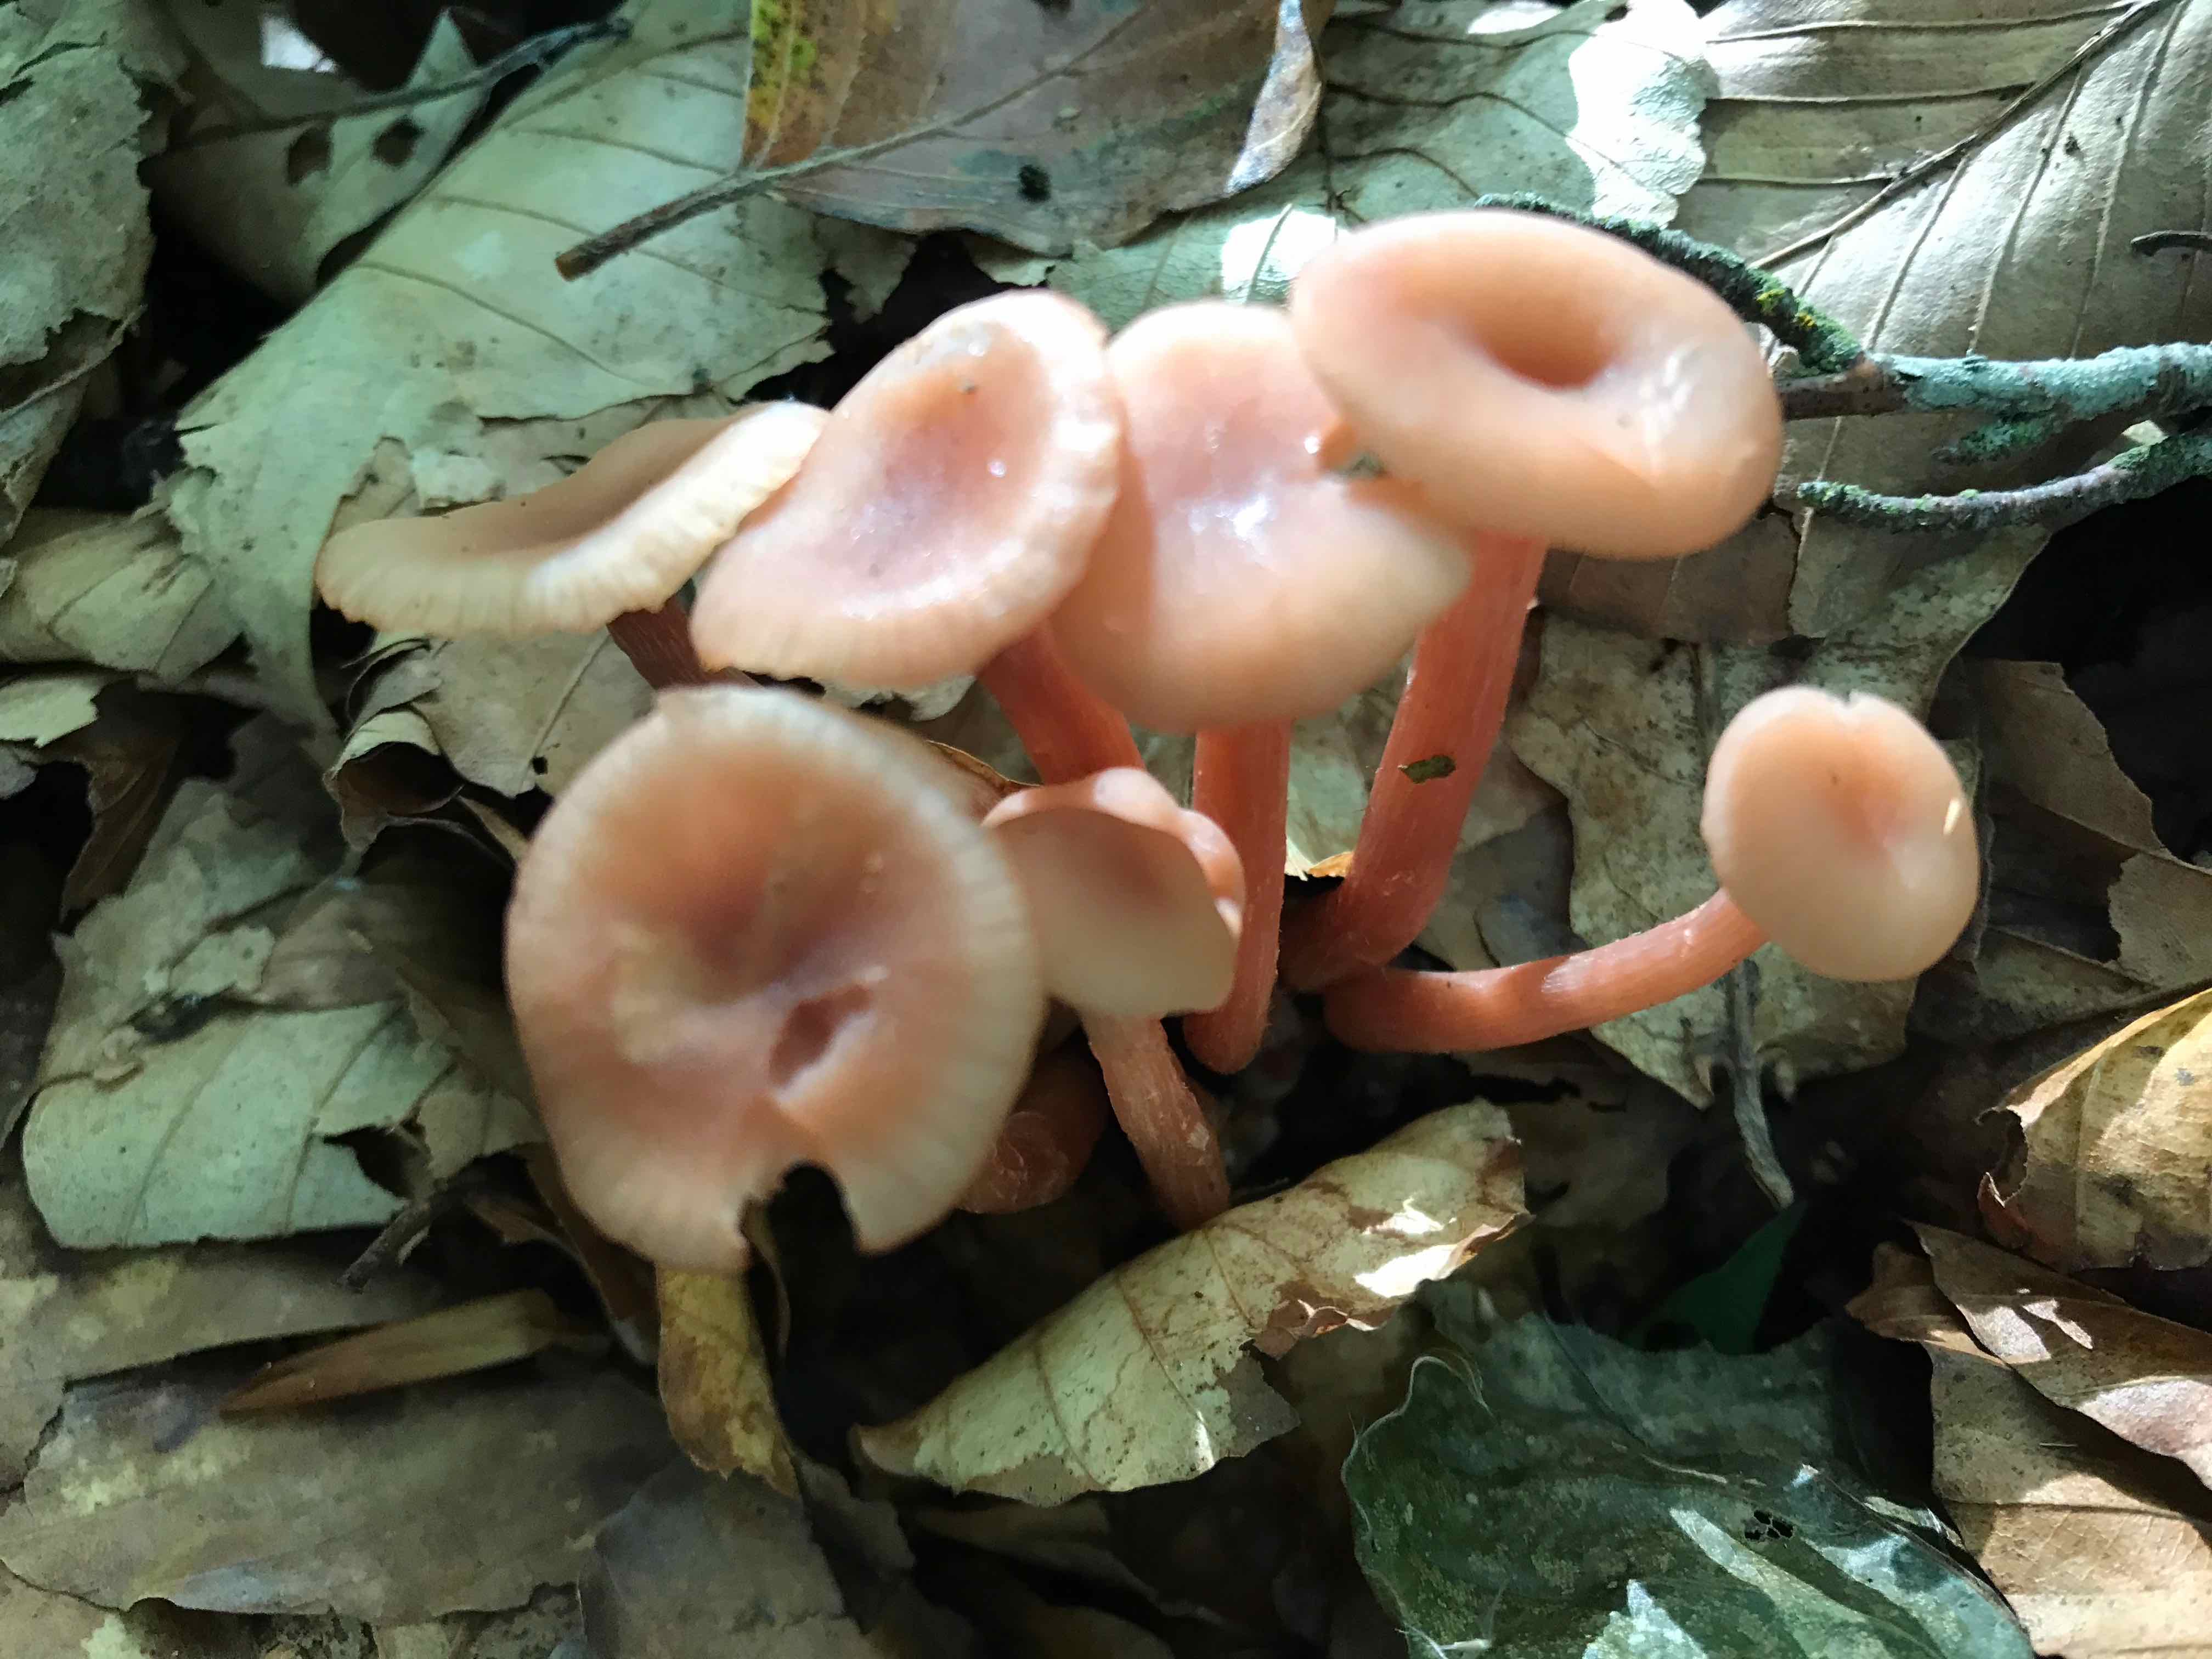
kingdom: Fungi
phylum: Basidiomycota
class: Agaricomycetes
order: Agaricales
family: Hydnangiaceae
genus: Laccaria
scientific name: Laccaria laccata
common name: rød ametysthat
